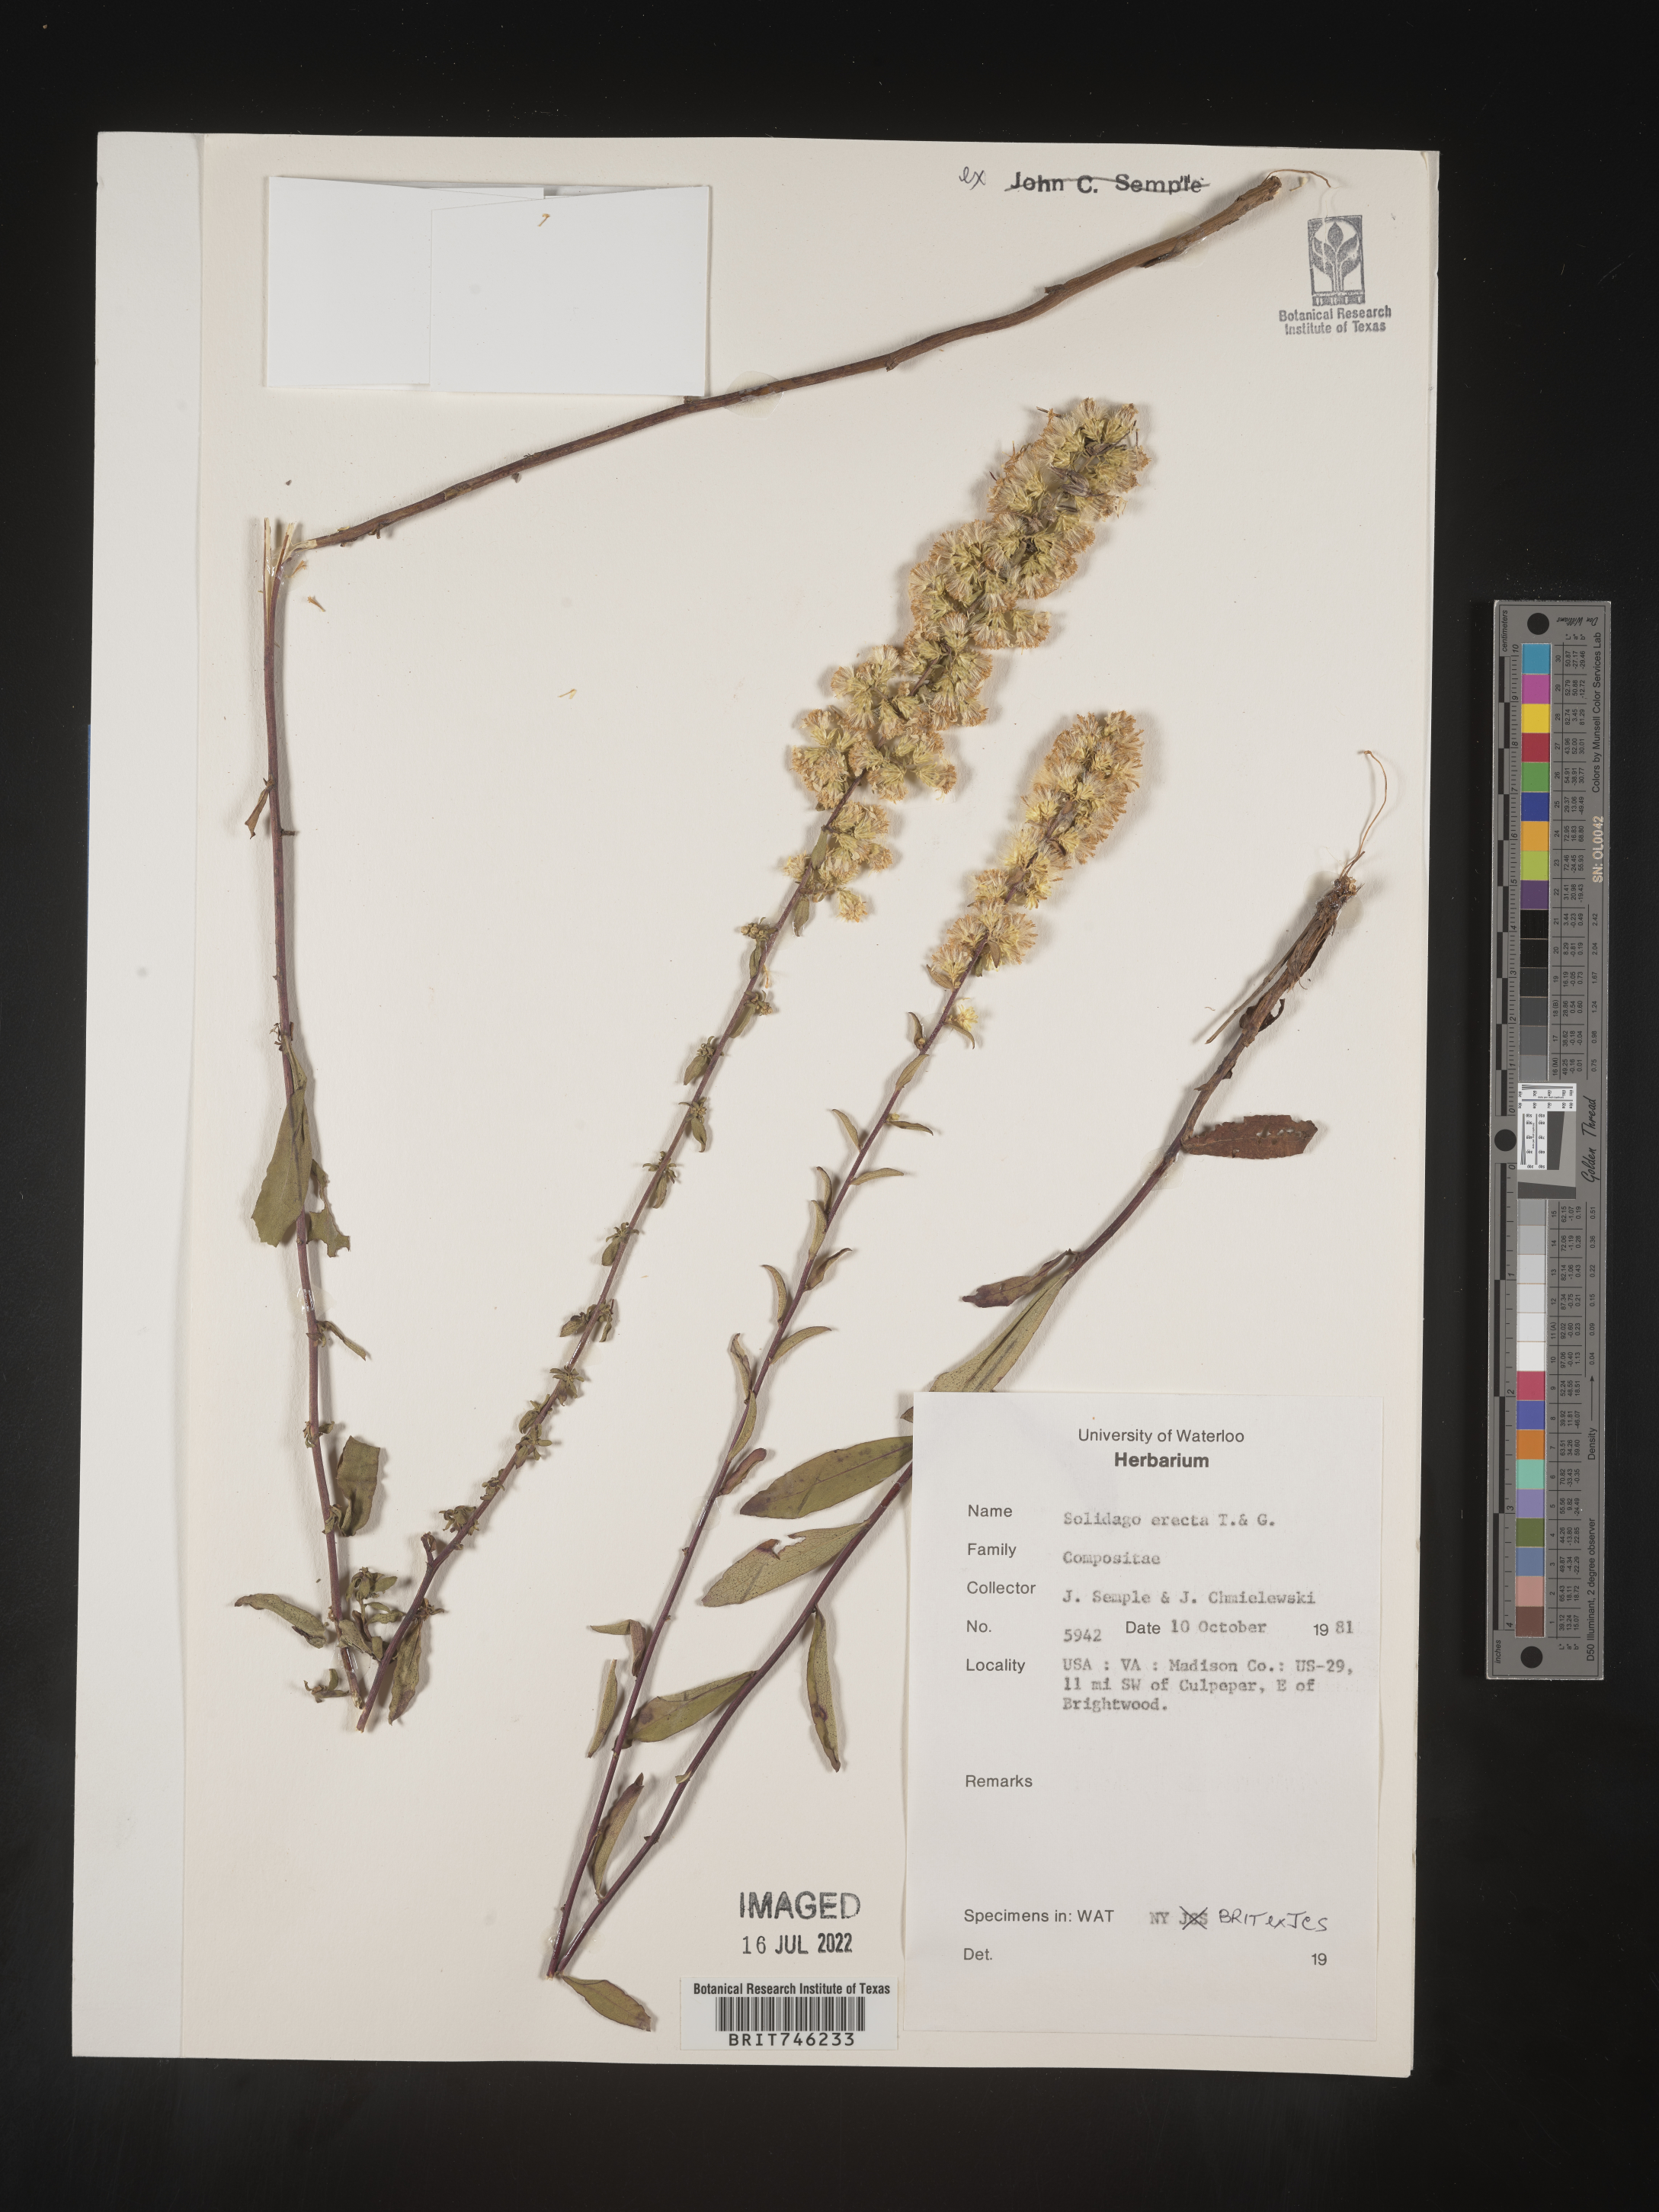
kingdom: Plantae
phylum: Tracheophyta
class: Magnoliopsida
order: Asterales
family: Asteraceae
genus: Solidago
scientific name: Solidago erecta
